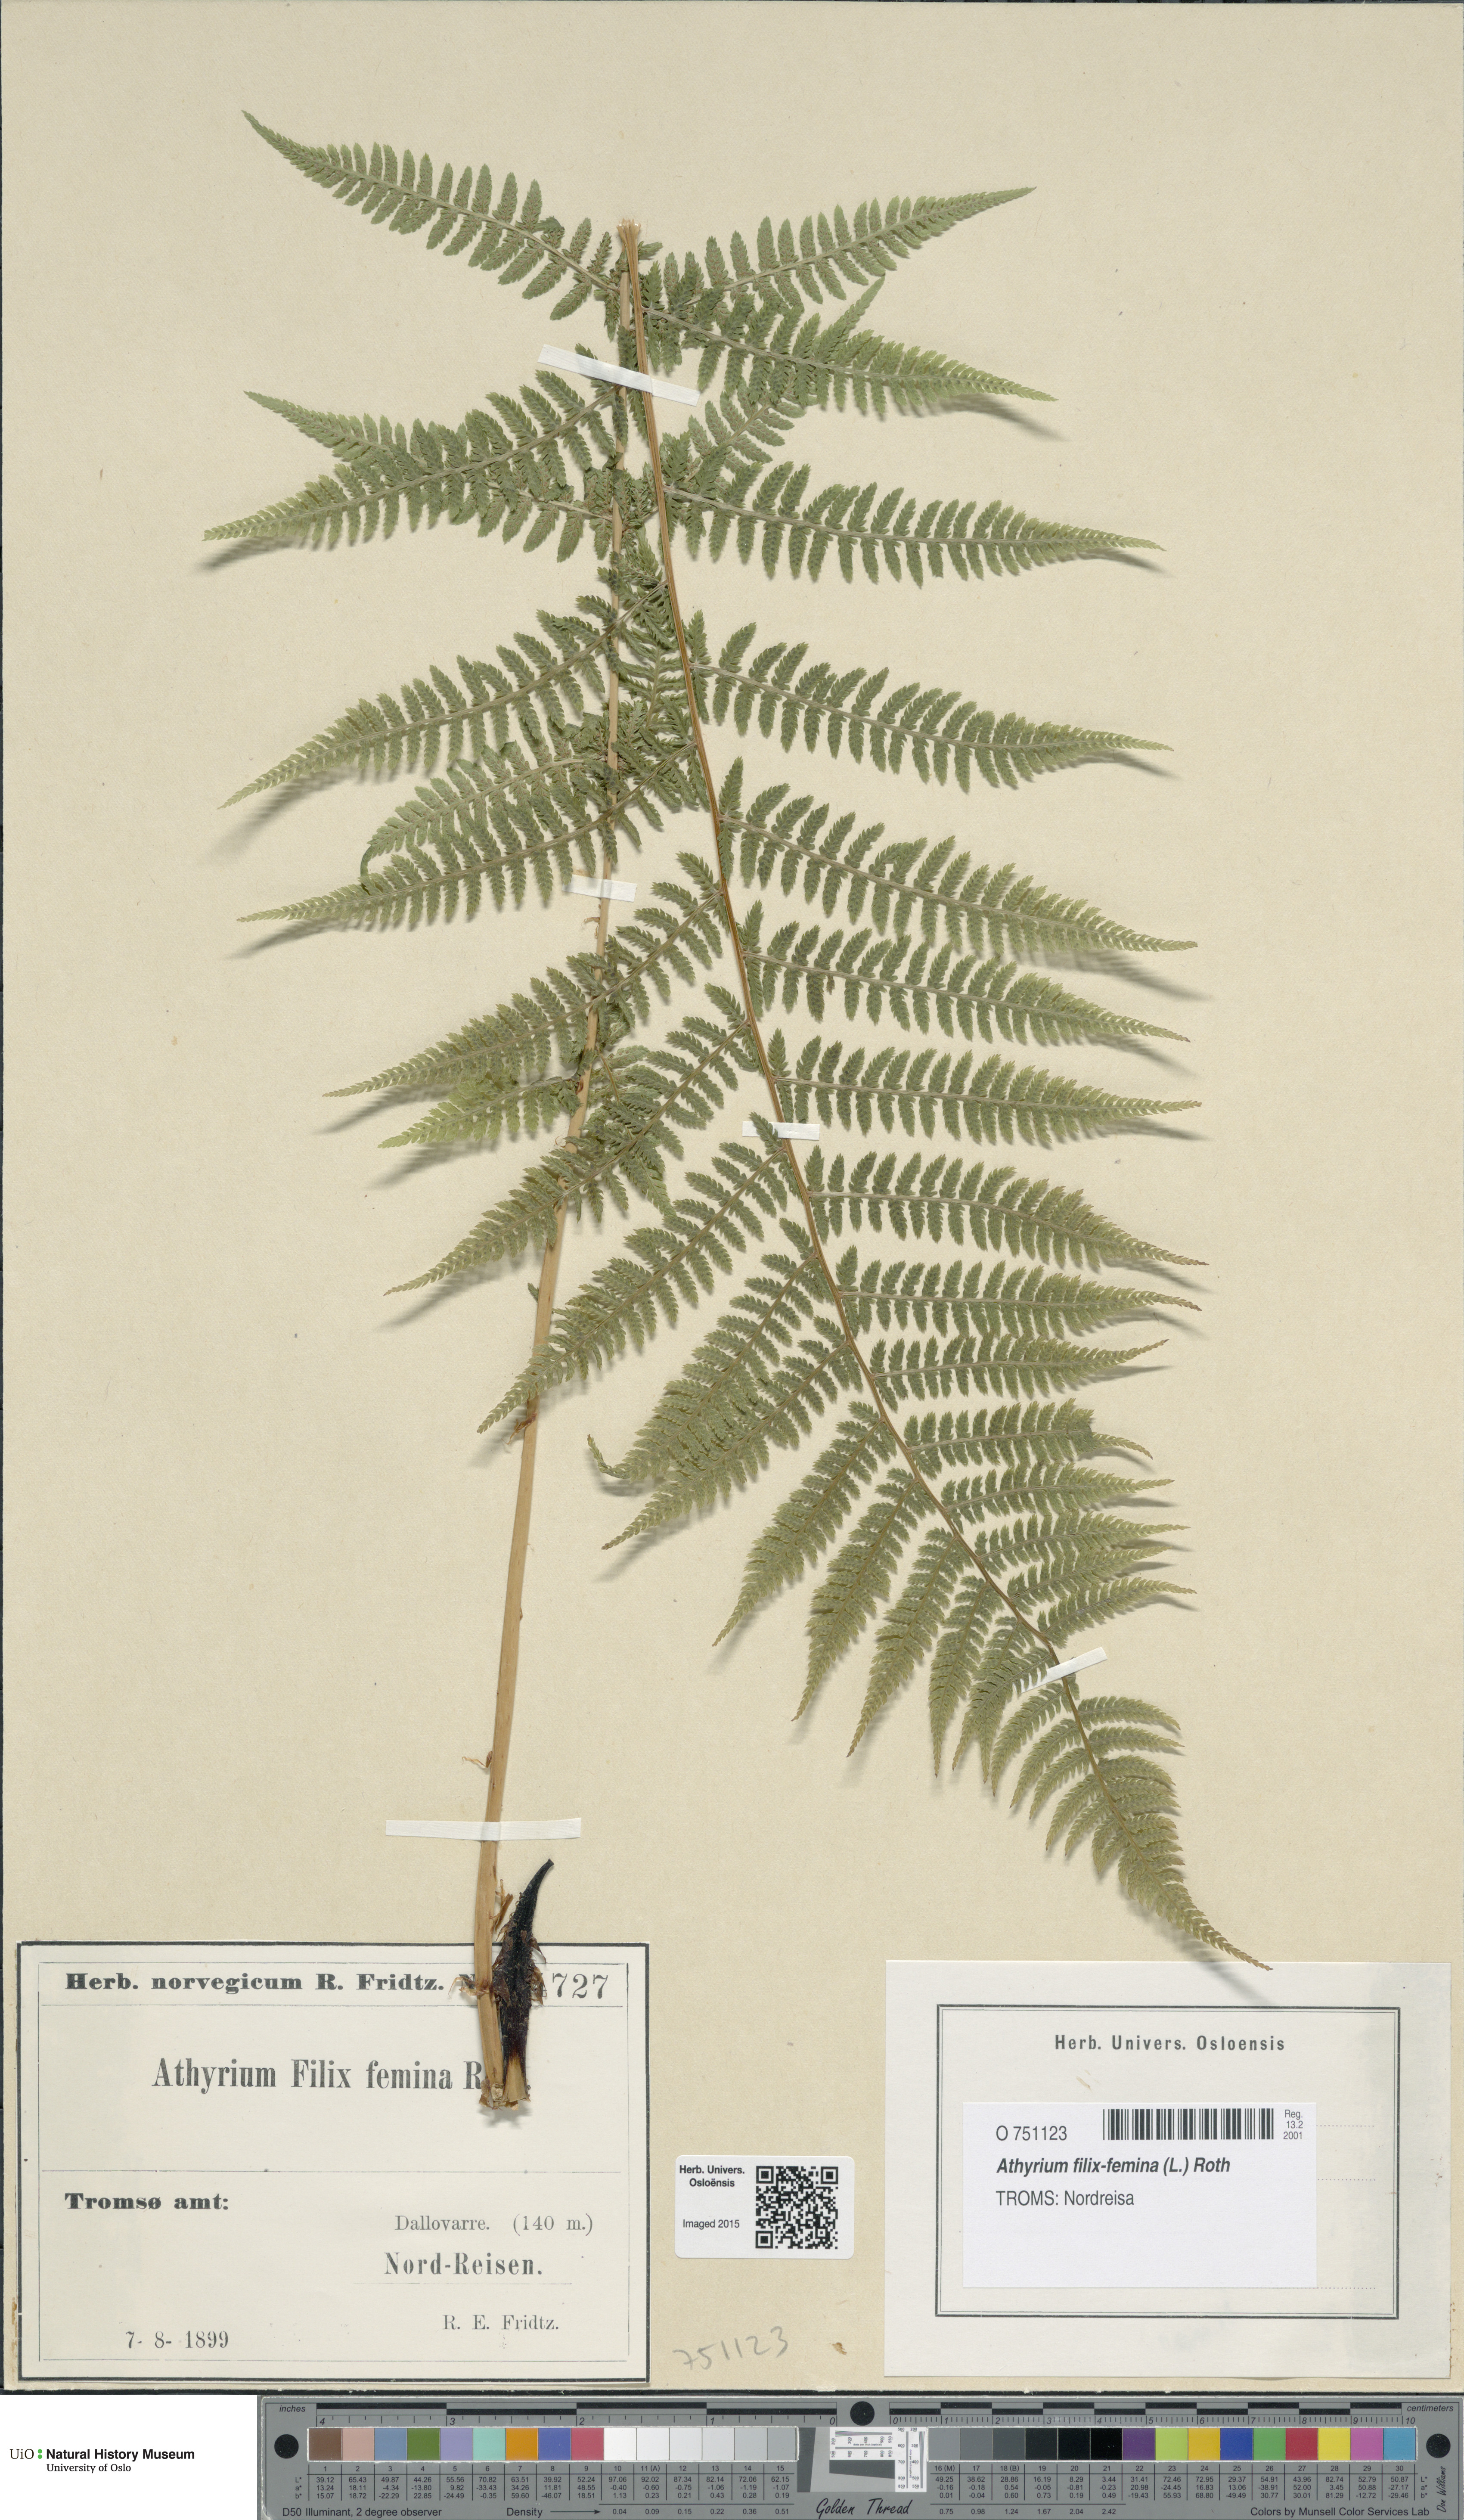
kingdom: Plantae
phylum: Tracheophyta
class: Polypodiopsida
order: Polypodiales
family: Athyriaceae
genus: Athyrium
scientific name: Athyrium filix-femina
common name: Lady fern
